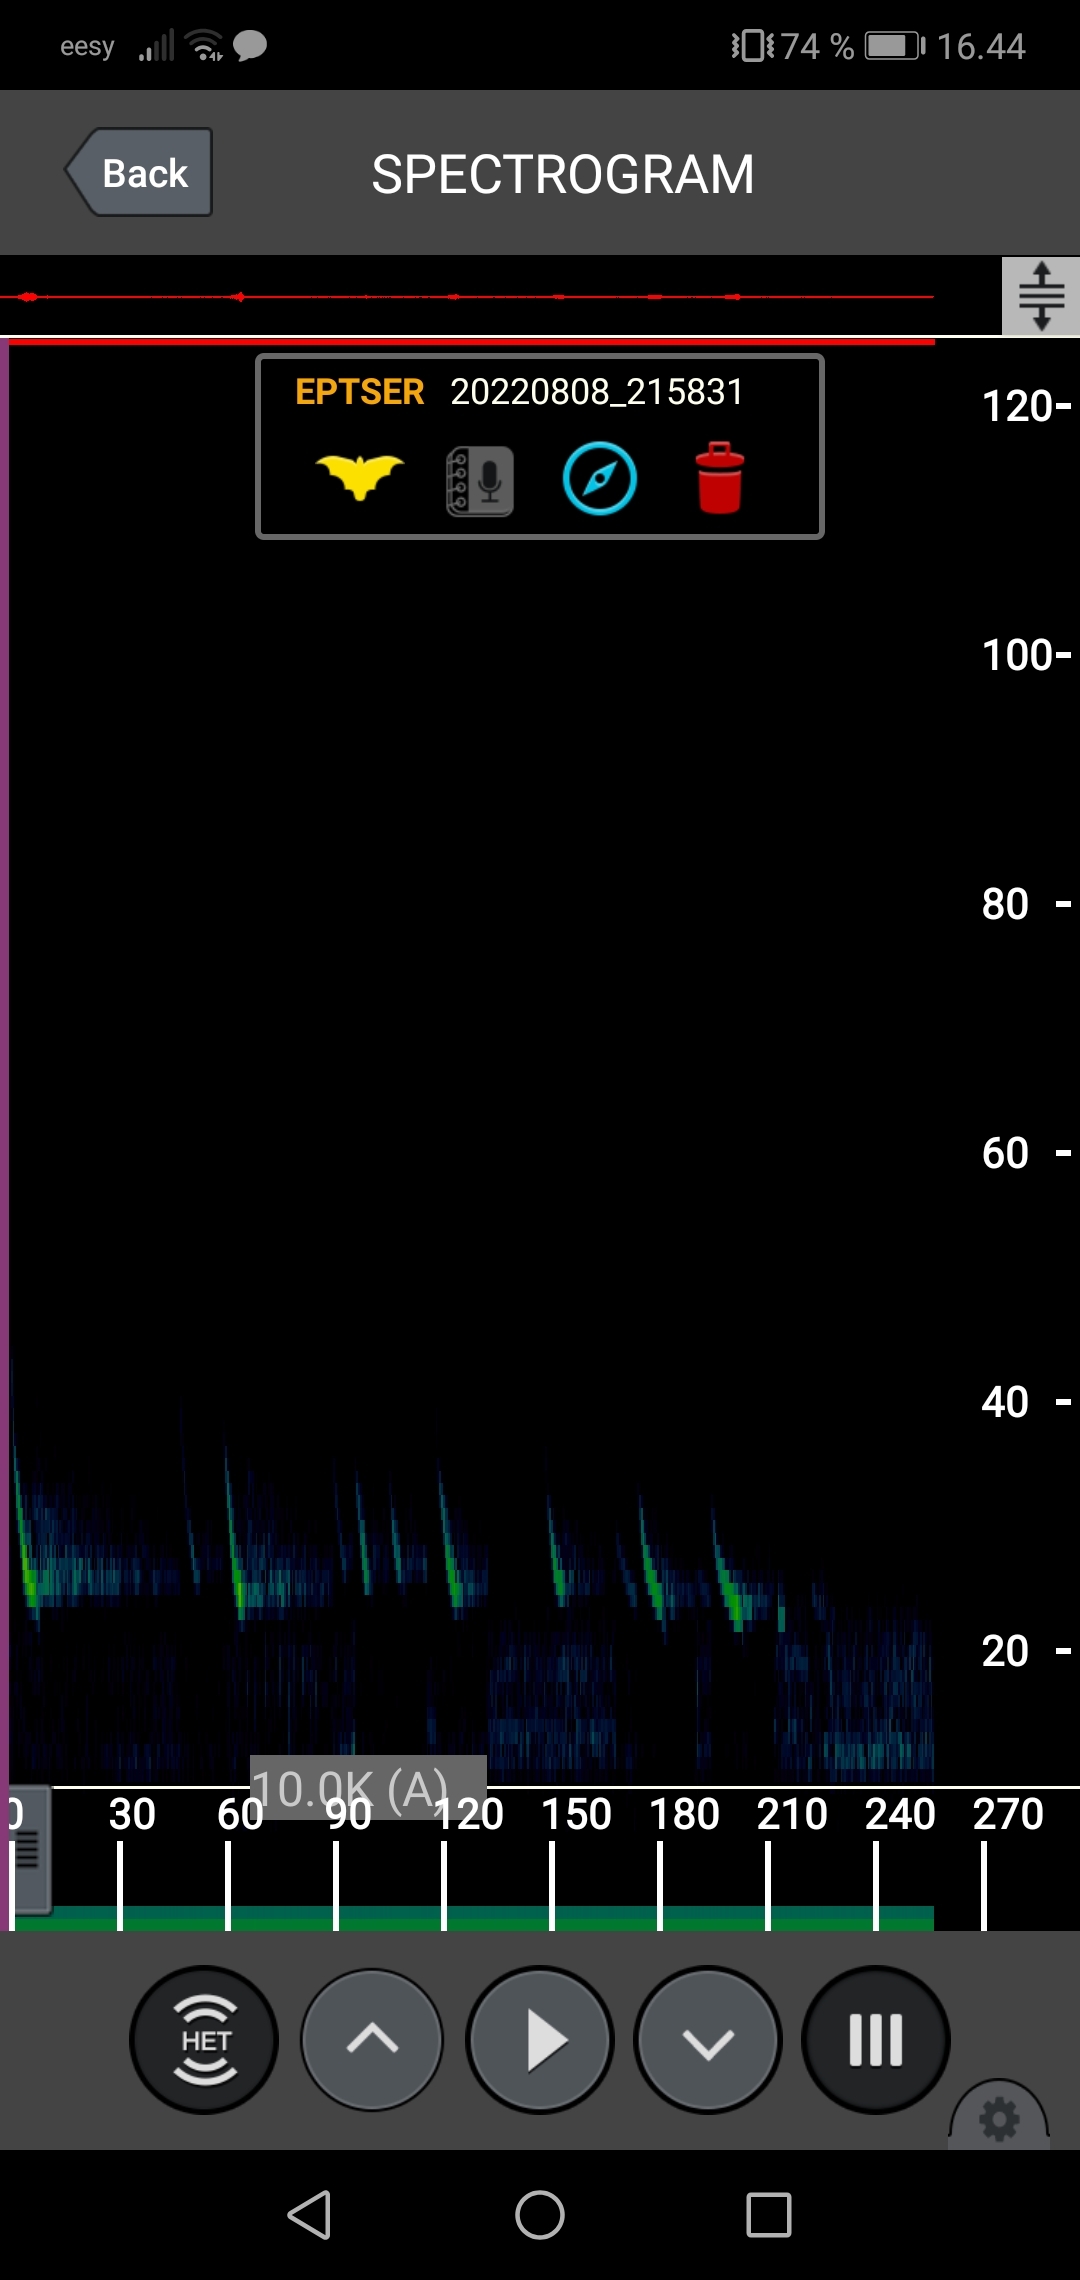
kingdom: Animalia
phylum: Chordata
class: Mammalia
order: Chiroptera
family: Vespertilionidae
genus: Eptesicus
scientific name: Eptesicus serotinus
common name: Sydflagermus
